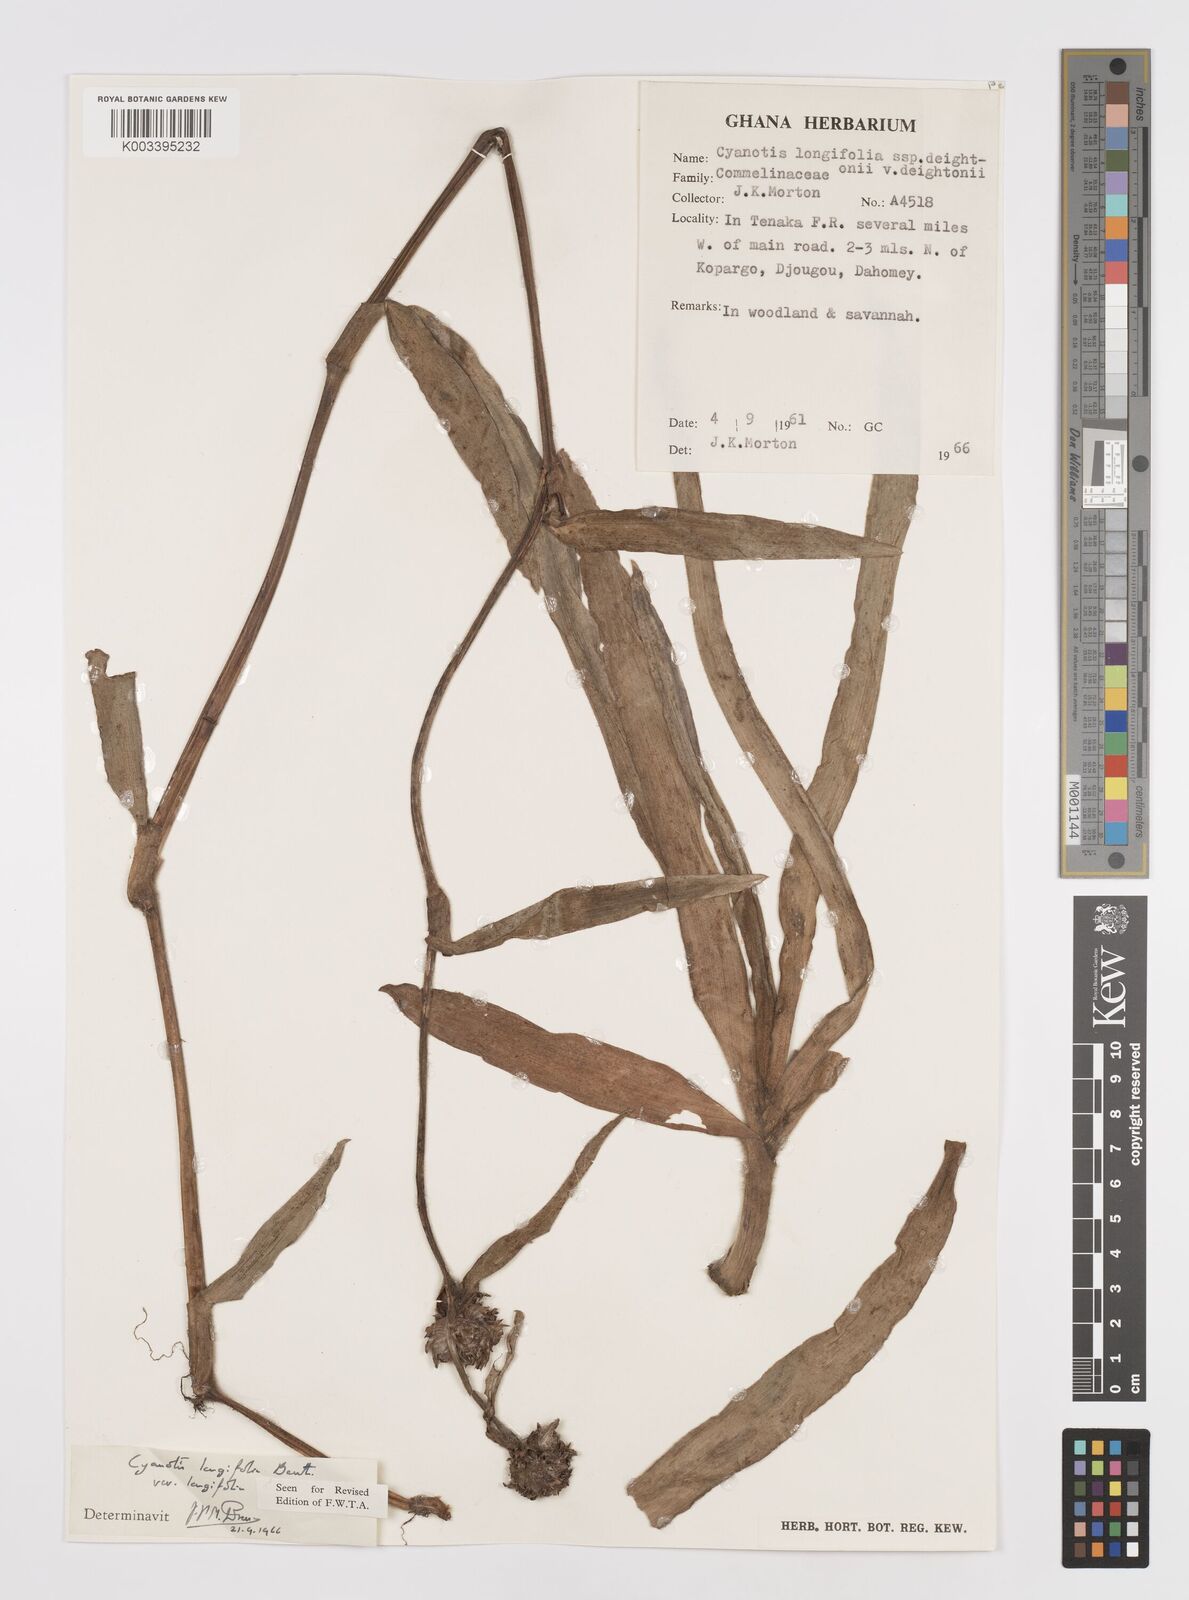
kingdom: Plantae
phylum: Tracheophyta
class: Liliopsida
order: Commelinales
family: Commelinaceae
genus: Cyanotis
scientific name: Cyanotis longifolia
